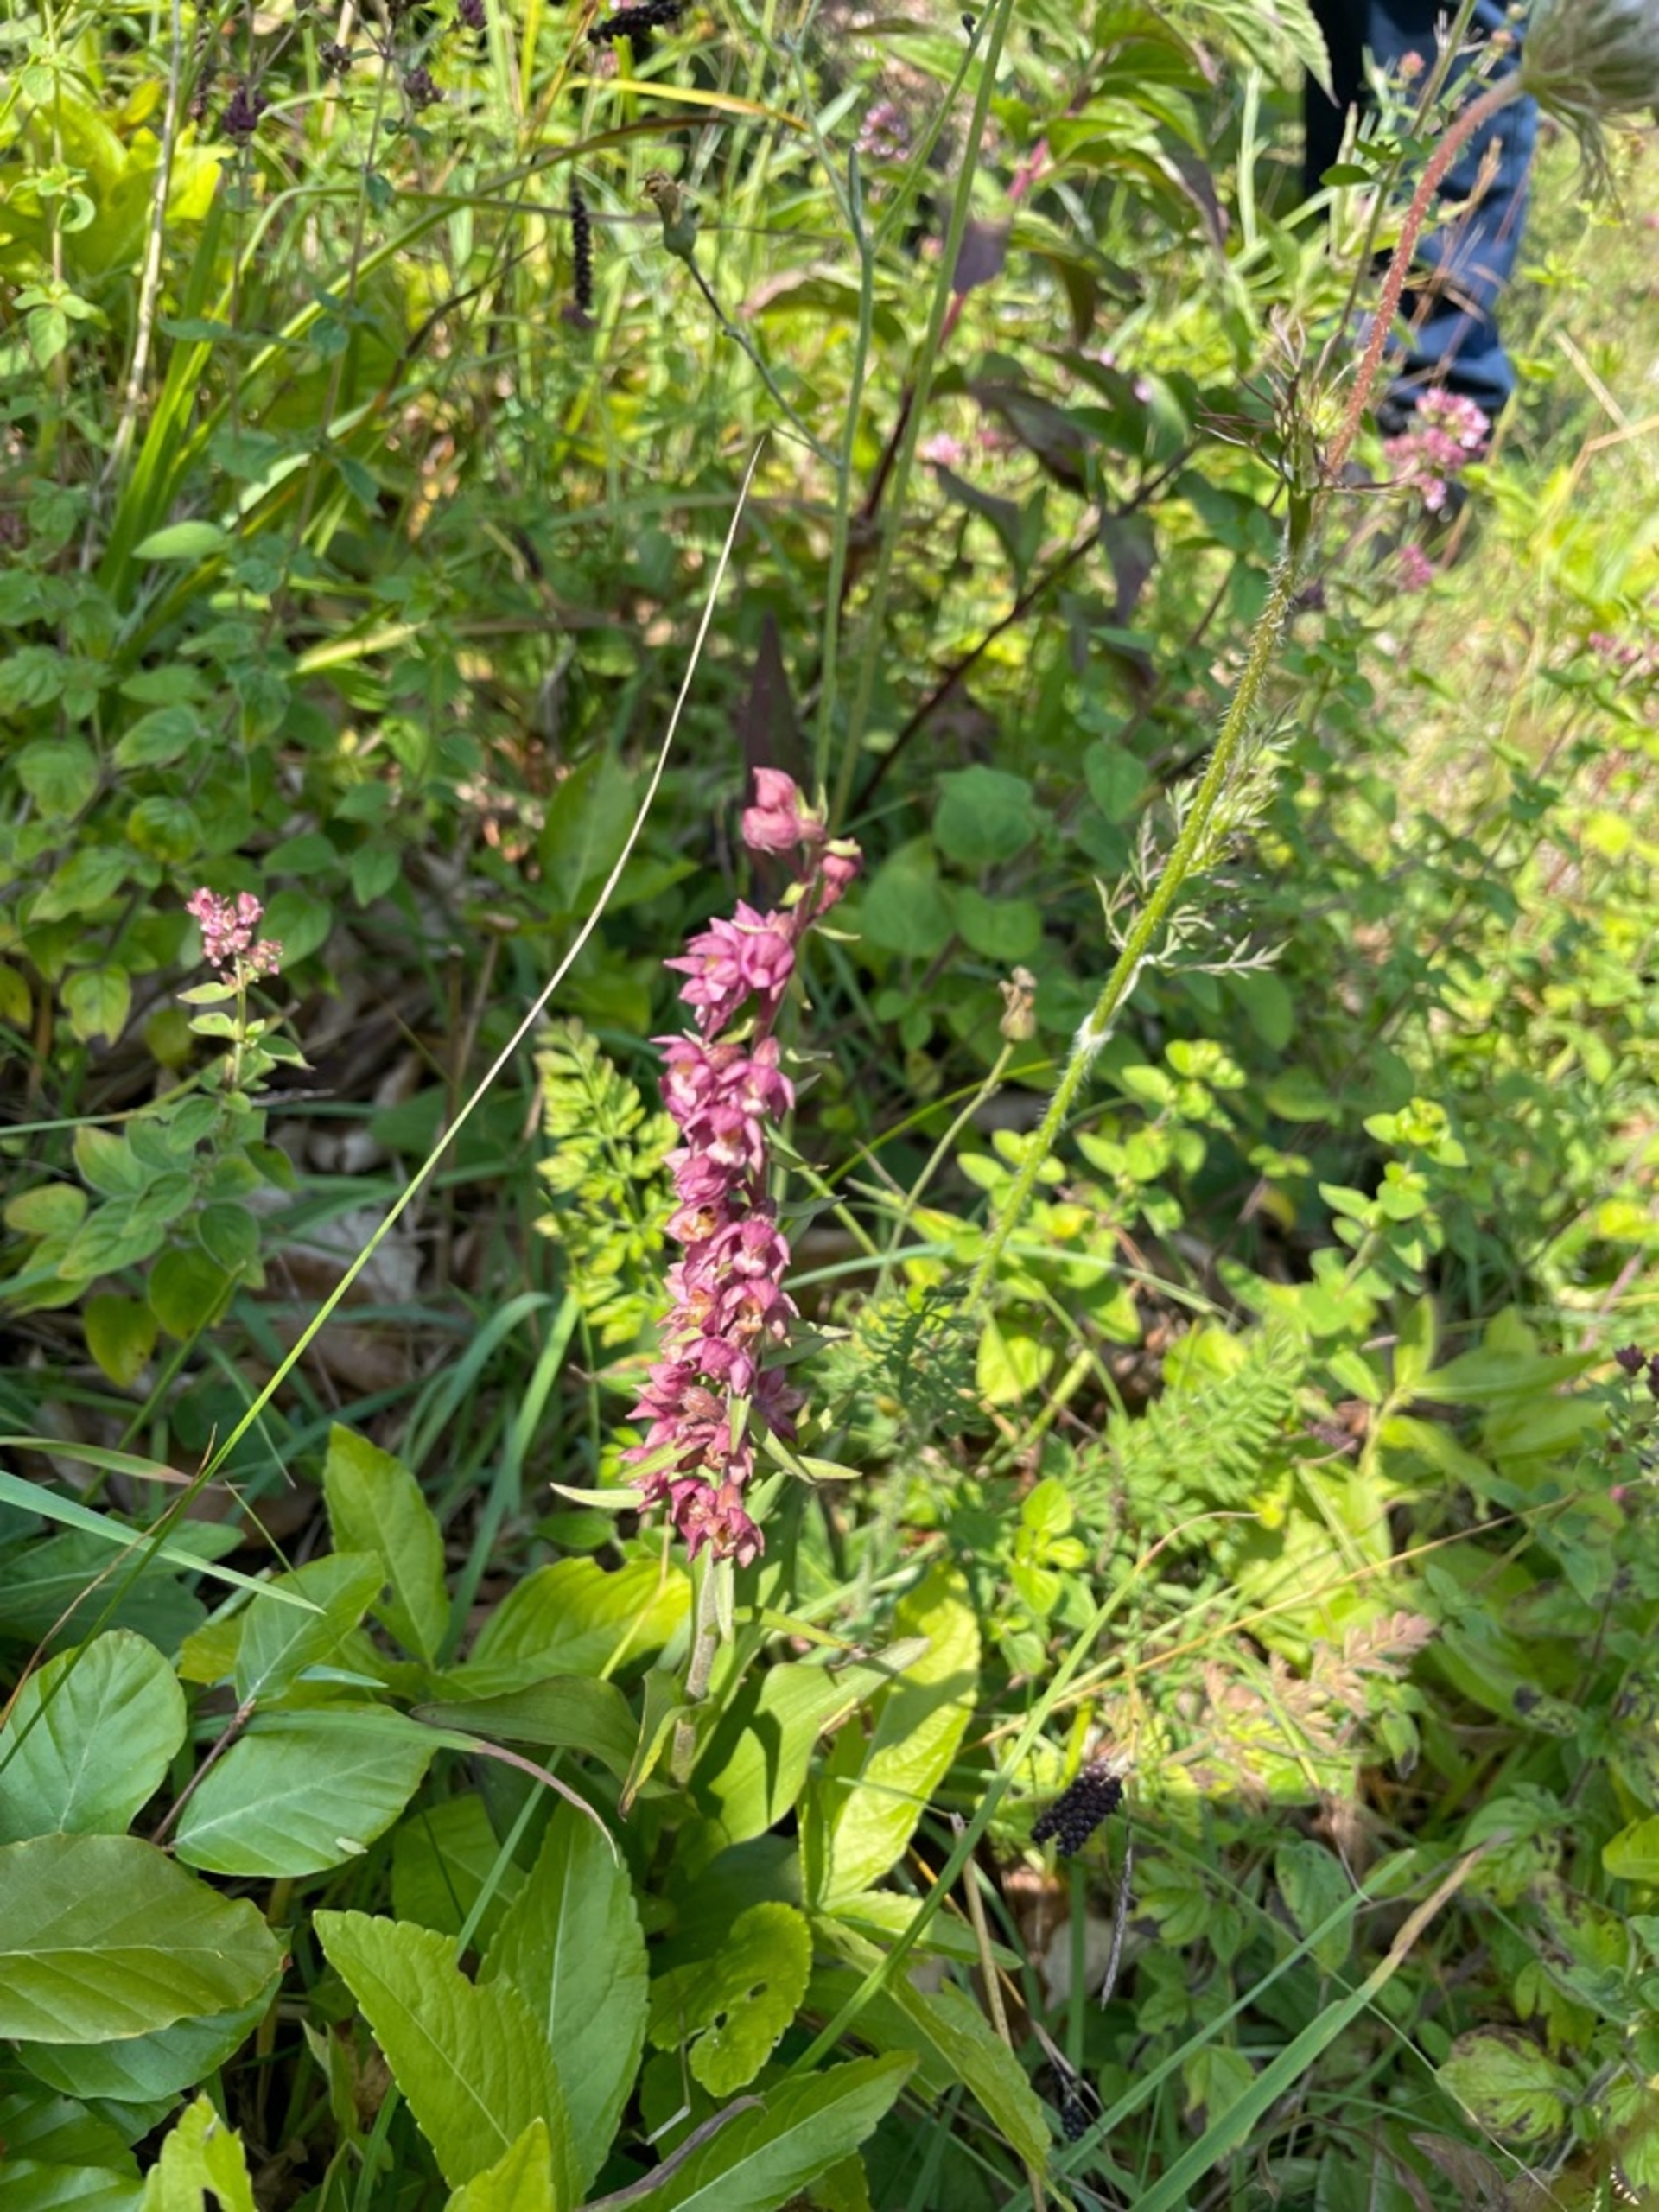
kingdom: Plantae
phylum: Tracheophyta
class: Liliopsida
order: Asparagales
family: Orchidaceae
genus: Epipactis
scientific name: Epipactis atrorubens
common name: Rød hullæbe
